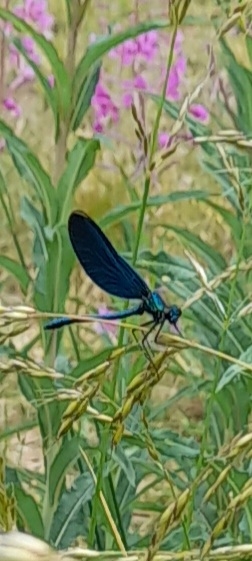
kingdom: Animalia
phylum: Arthropoda
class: Insecta
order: Odonata
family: Calopterygidae
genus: Calopteryx
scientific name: Calopteryx virgo
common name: Blåvinget pragtvandnymfe
